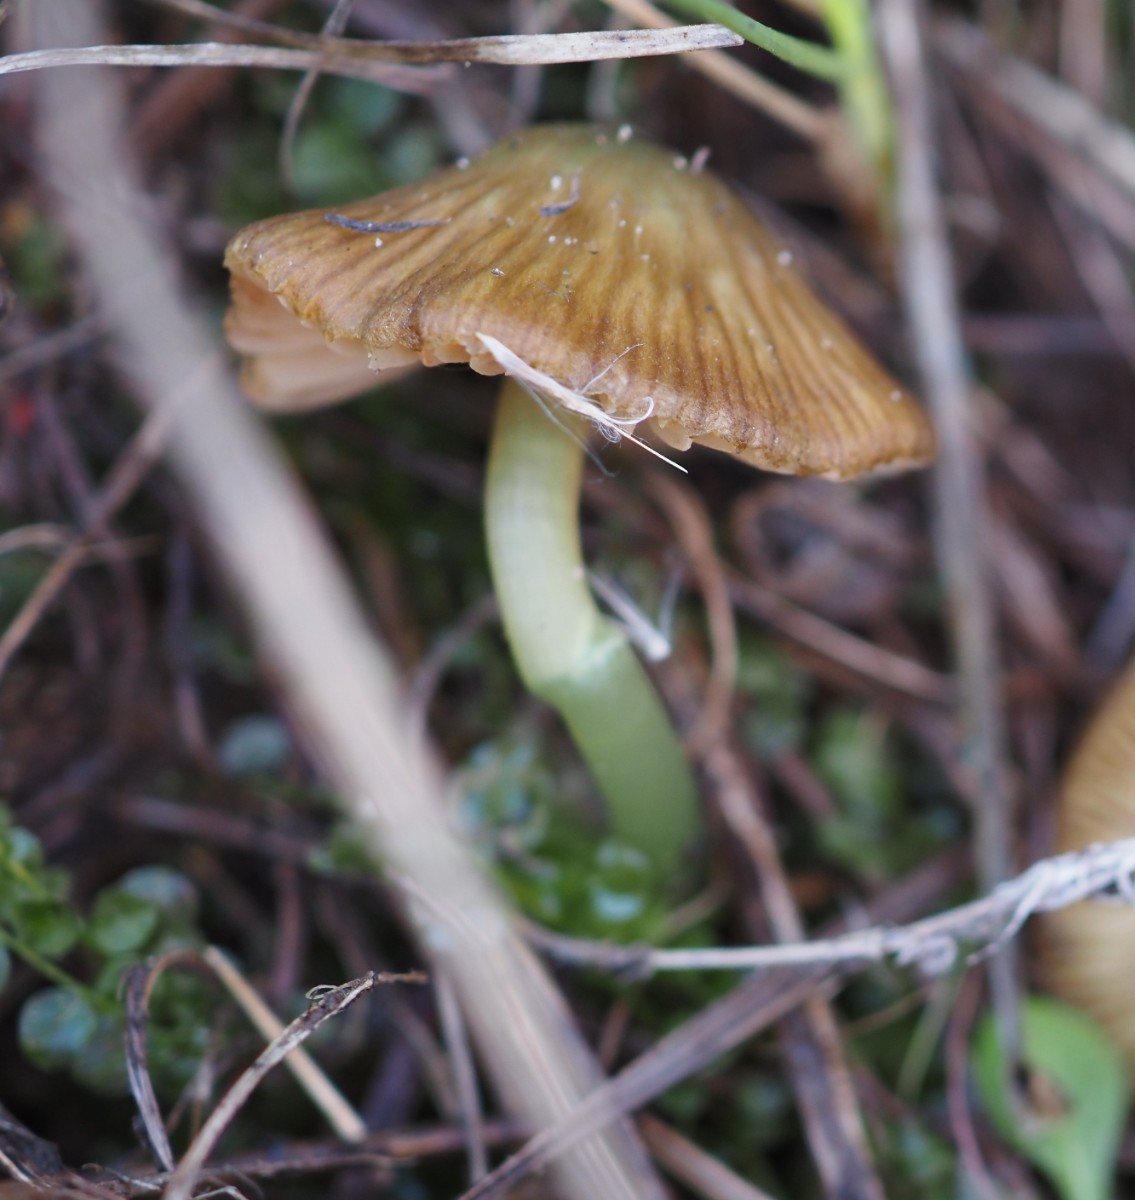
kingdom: Fungi
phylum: Basidiomycota
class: Agaricomycetes
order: Agaricales
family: Entolomataceae
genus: Entoloma
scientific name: Entoloma incanum
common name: grøngul rødblad
